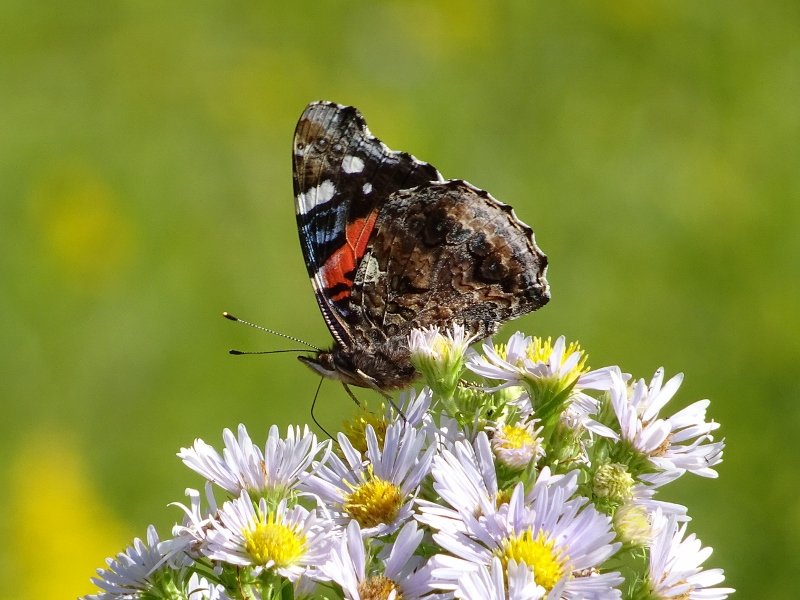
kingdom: Animalia
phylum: Arthropoda
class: Insecta
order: Lepidoptera
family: Nymphalidae
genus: Vanessa
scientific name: Vanessa atalanta
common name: Red Admiral
